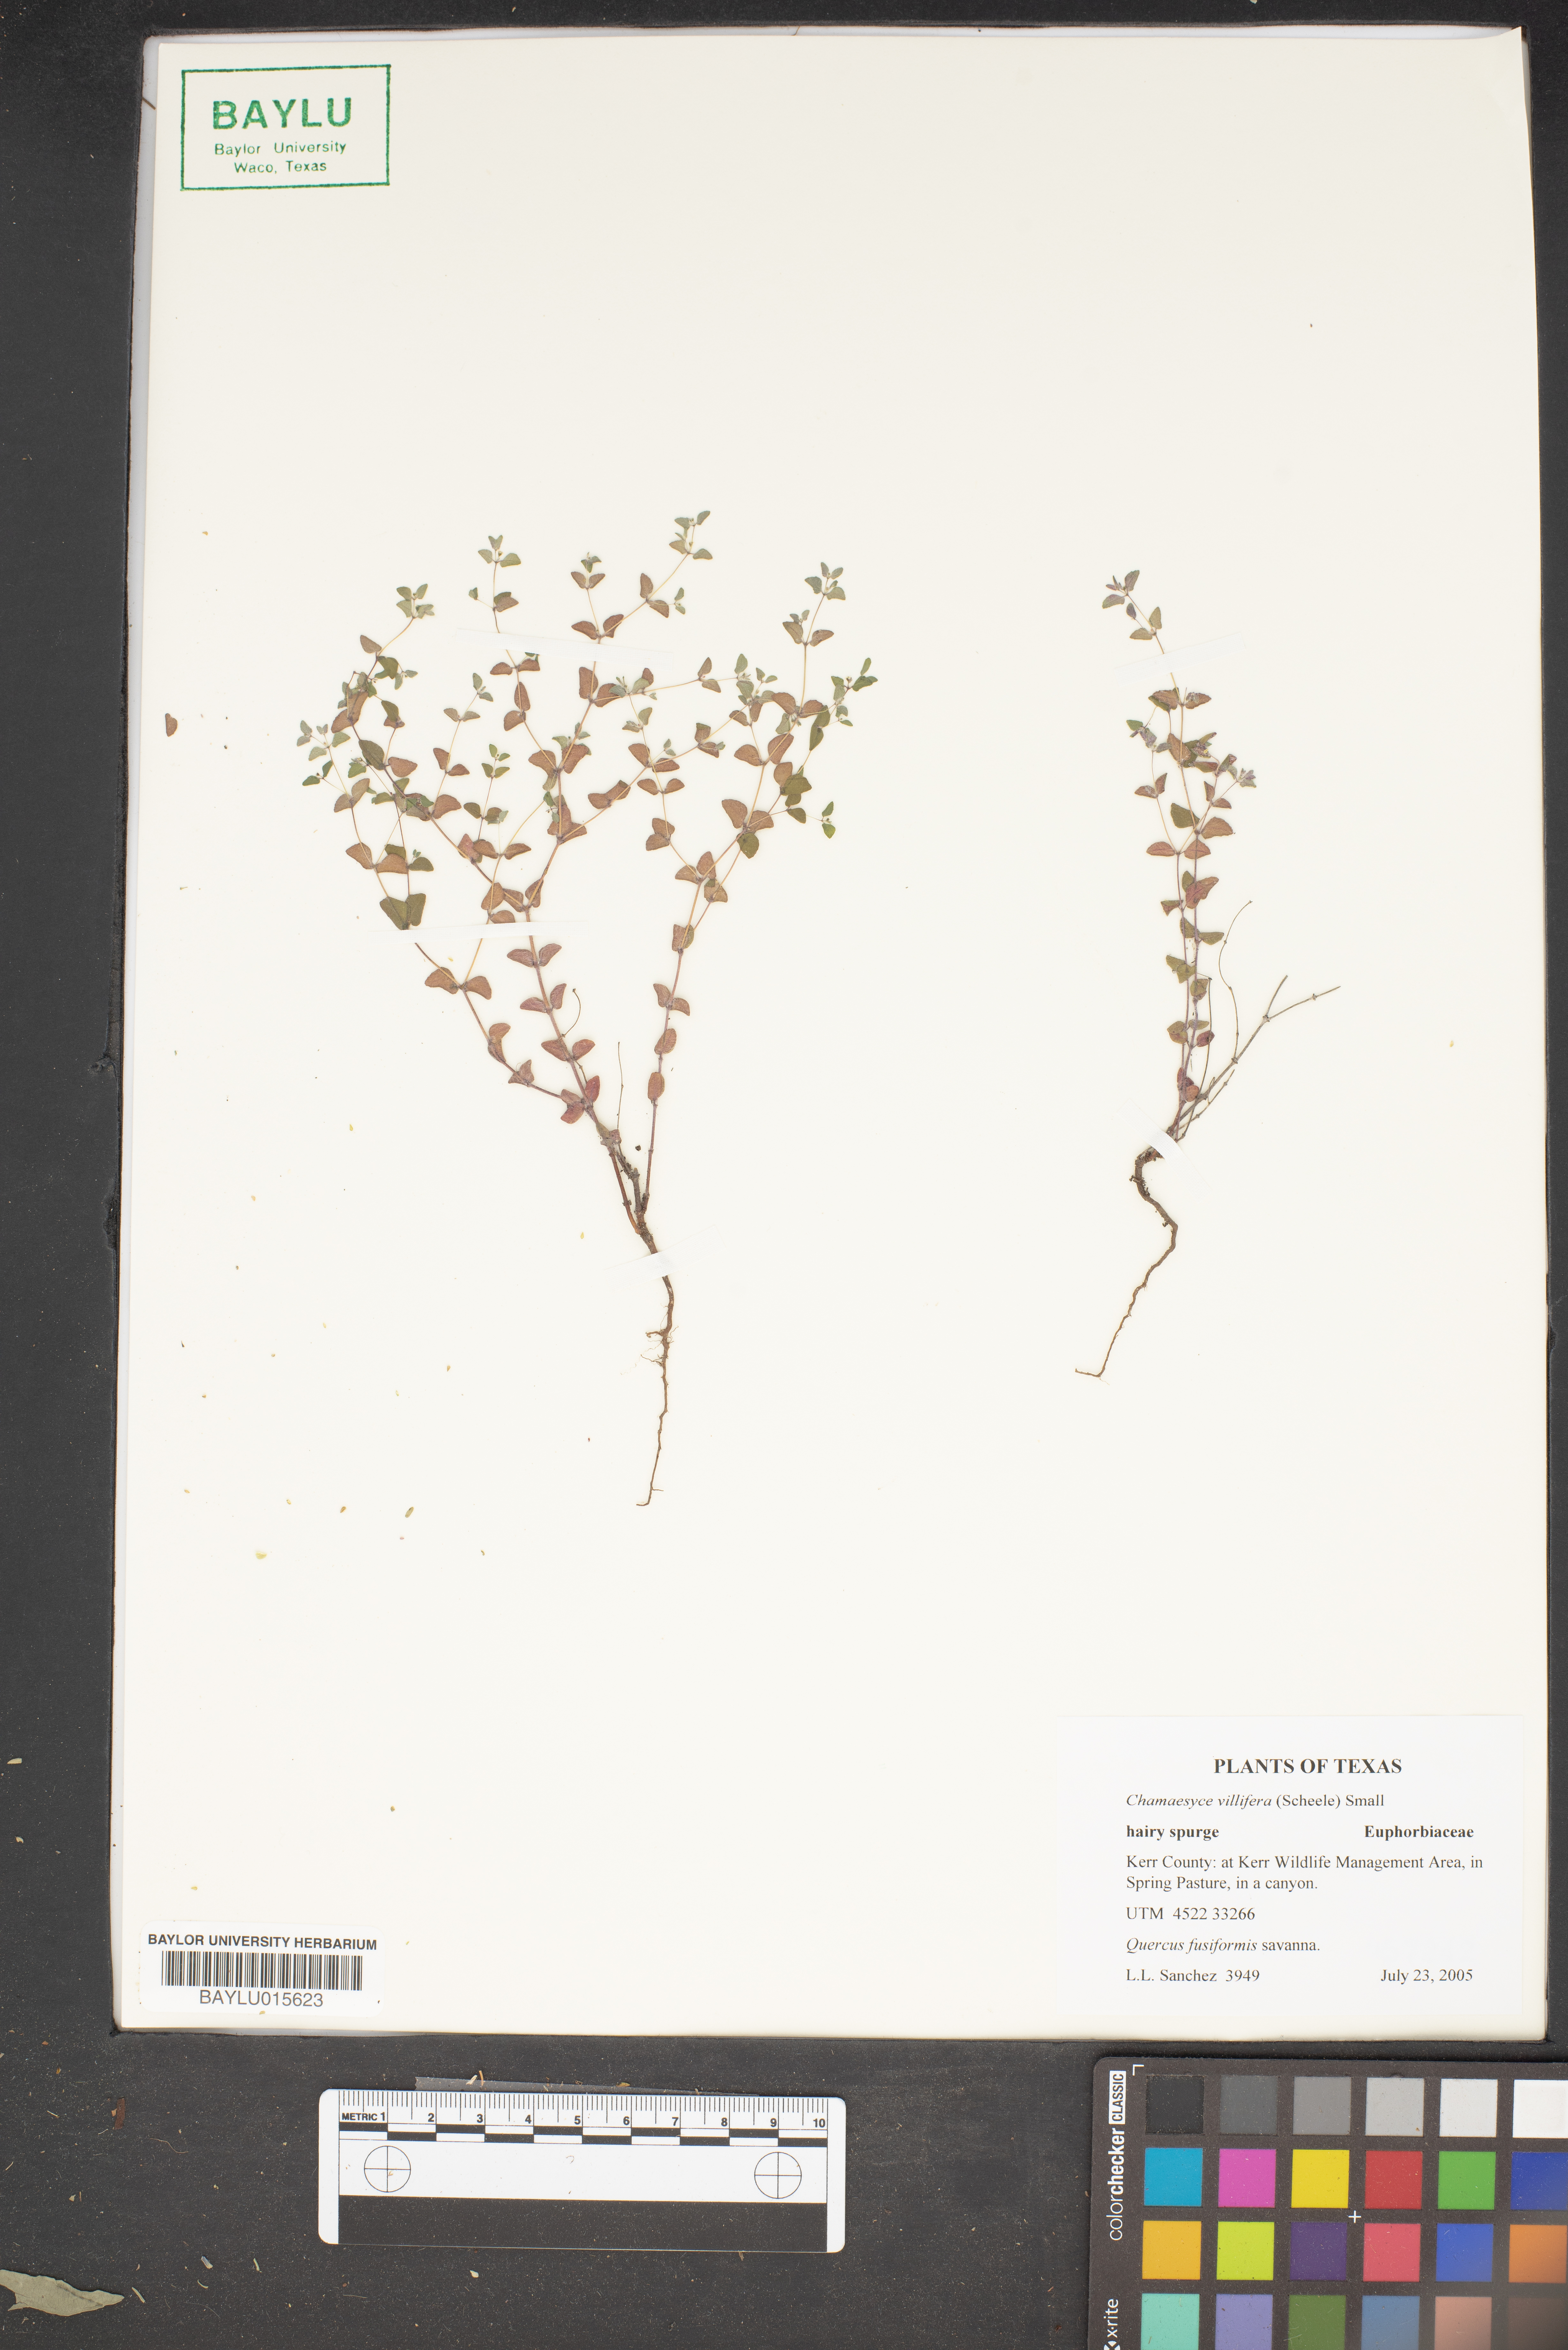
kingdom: Plantae
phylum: Tracheophyta
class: Magnoliopsida
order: Malpighiales
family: Euphorbiaceae
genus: Euphorbia
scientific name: Euphorbia villifera
